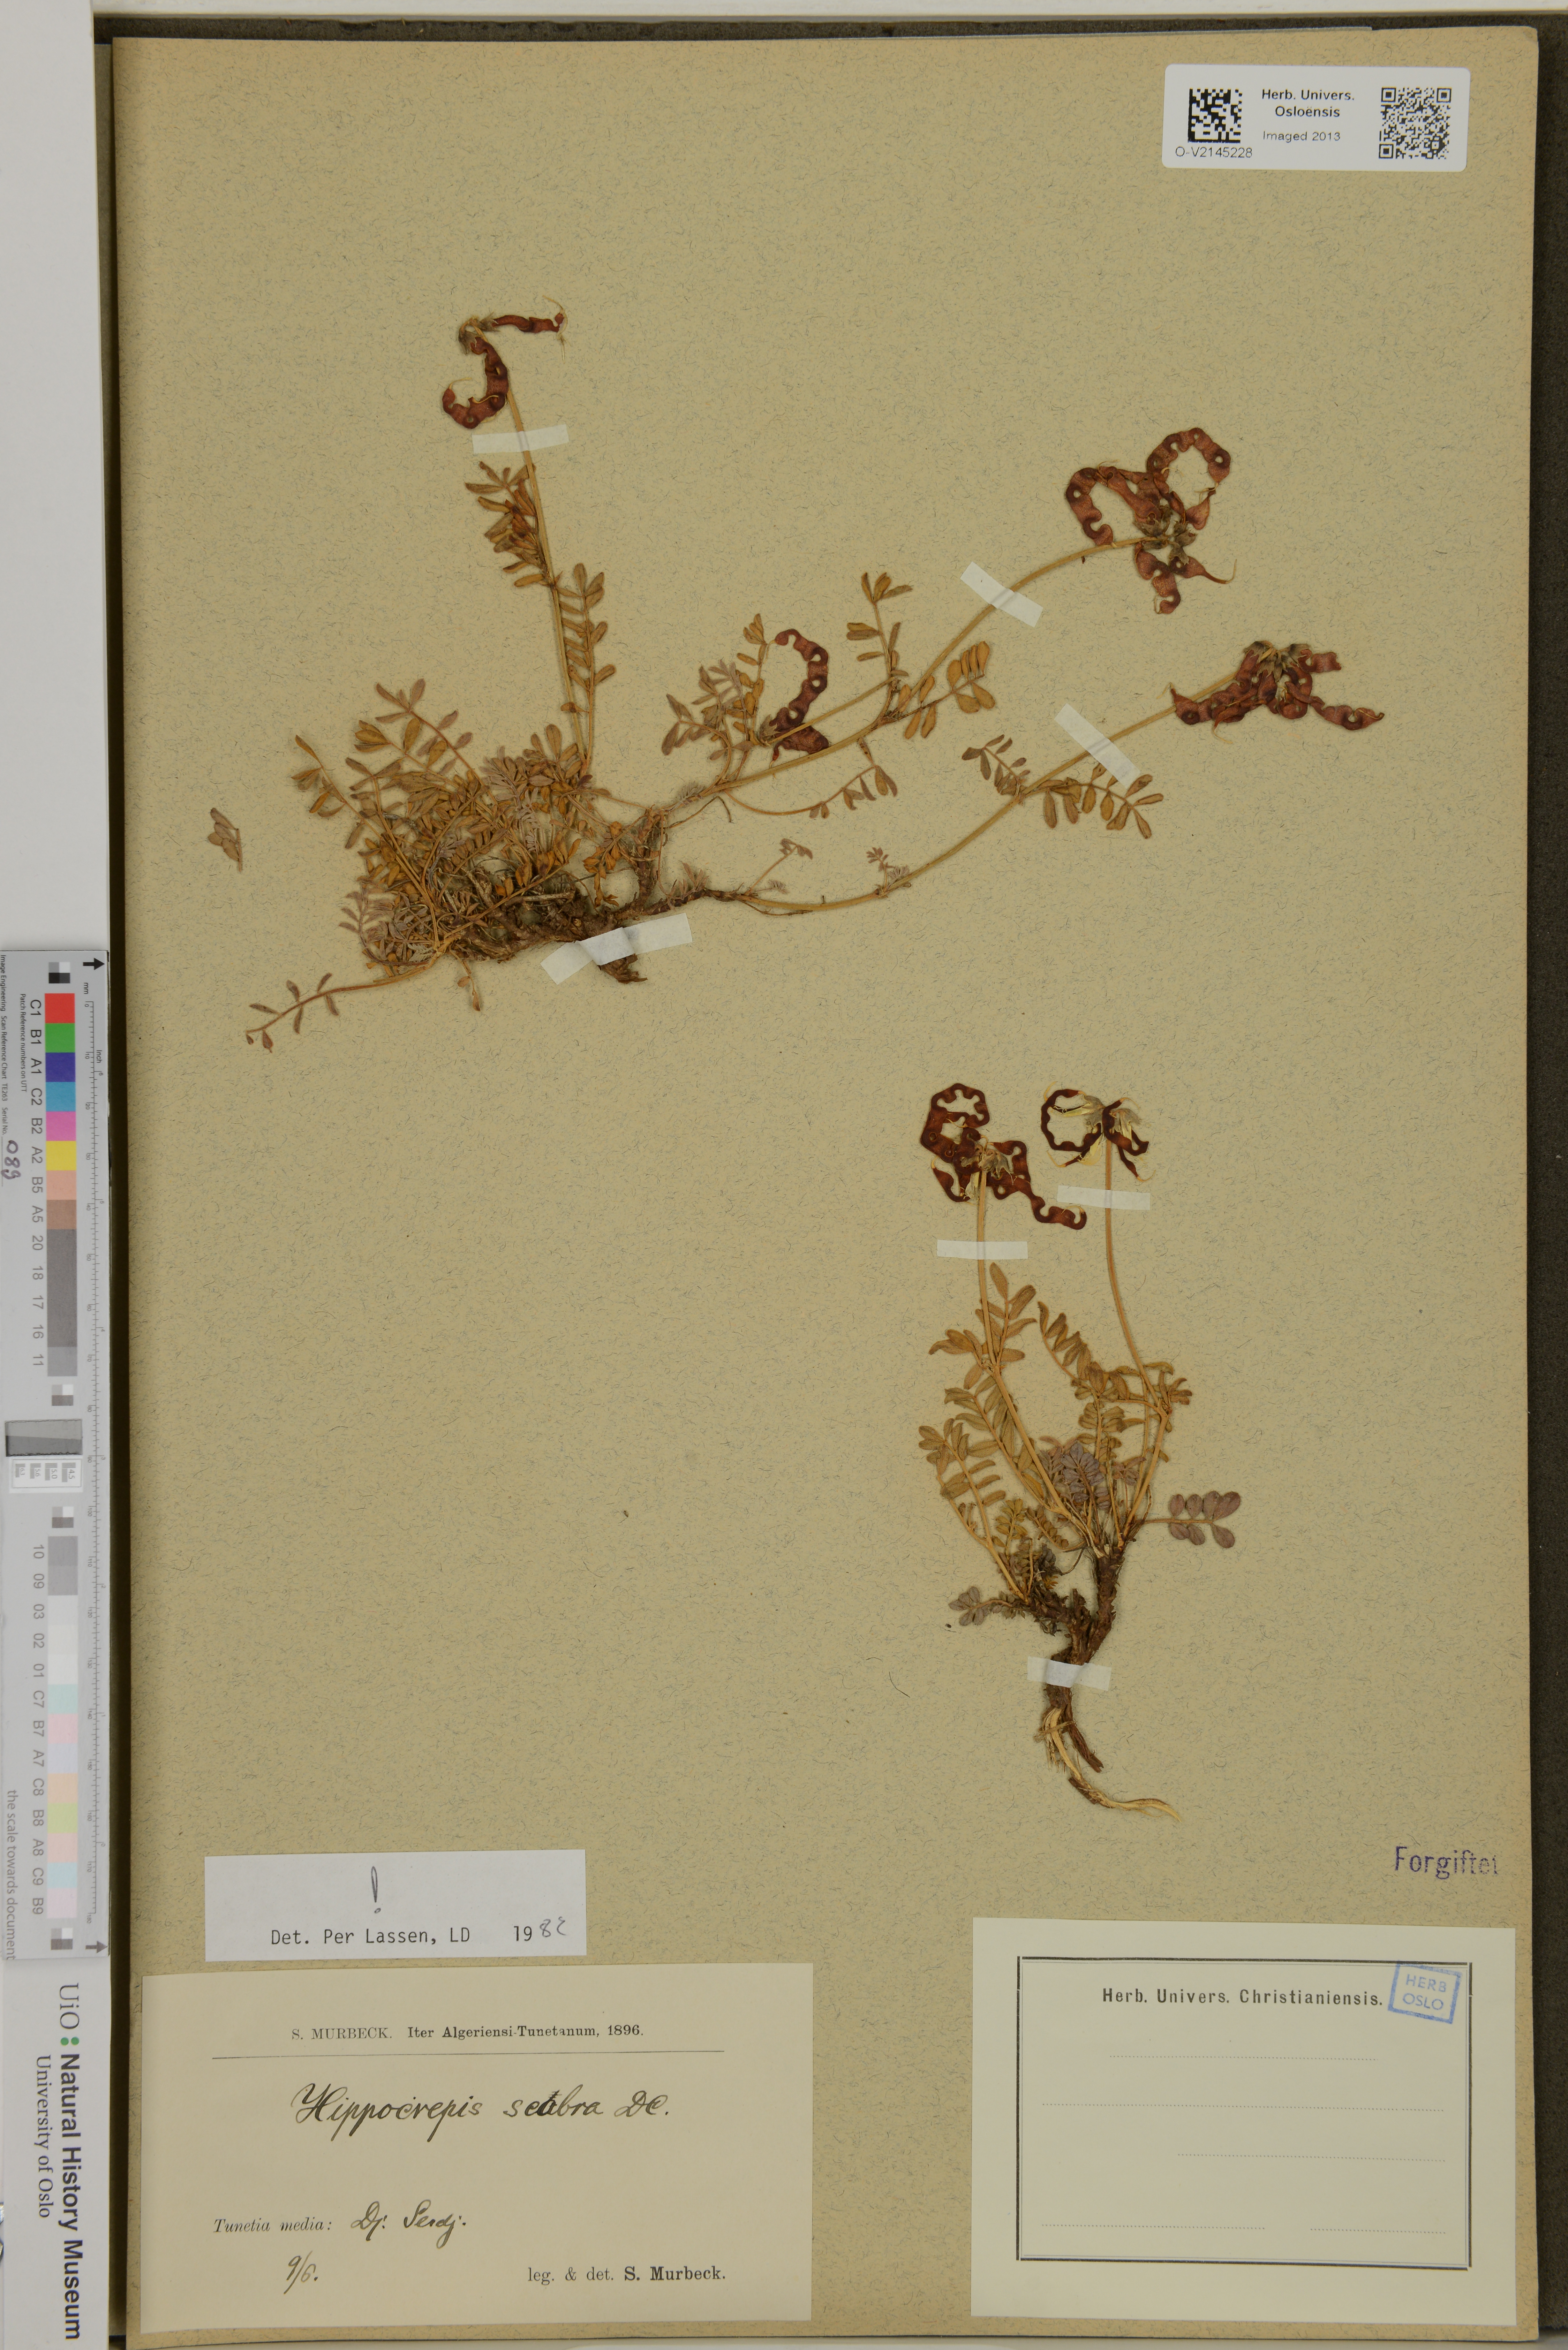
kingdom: Plantae
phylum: Tracheophyta
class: Magnoliopsida
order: Fabales
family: Fabaceae
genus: Hippocrepis
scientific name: Hippocrepis scabra
